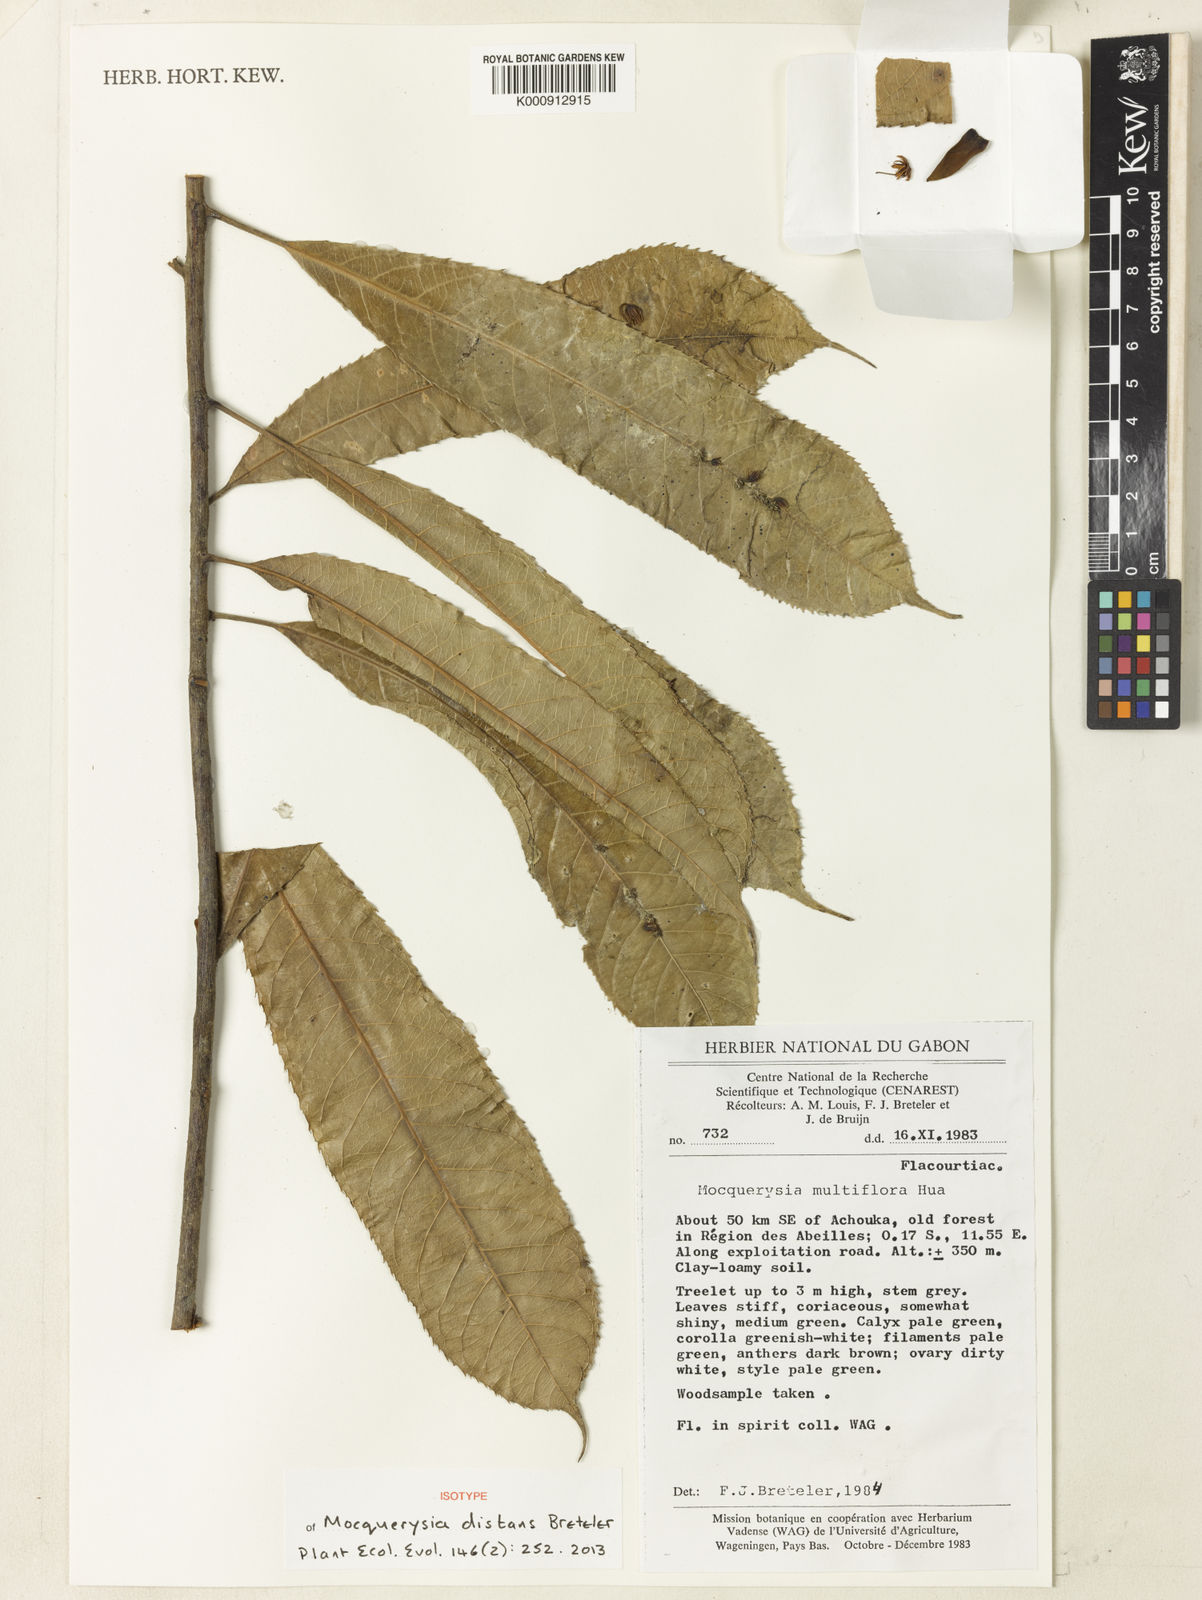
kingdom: Plantae
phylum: Tracheophyta
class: Magnoliopsida
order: Malpighiales
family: Salicaceae
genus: Mocquerysia
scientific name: Mocquerysia distans
